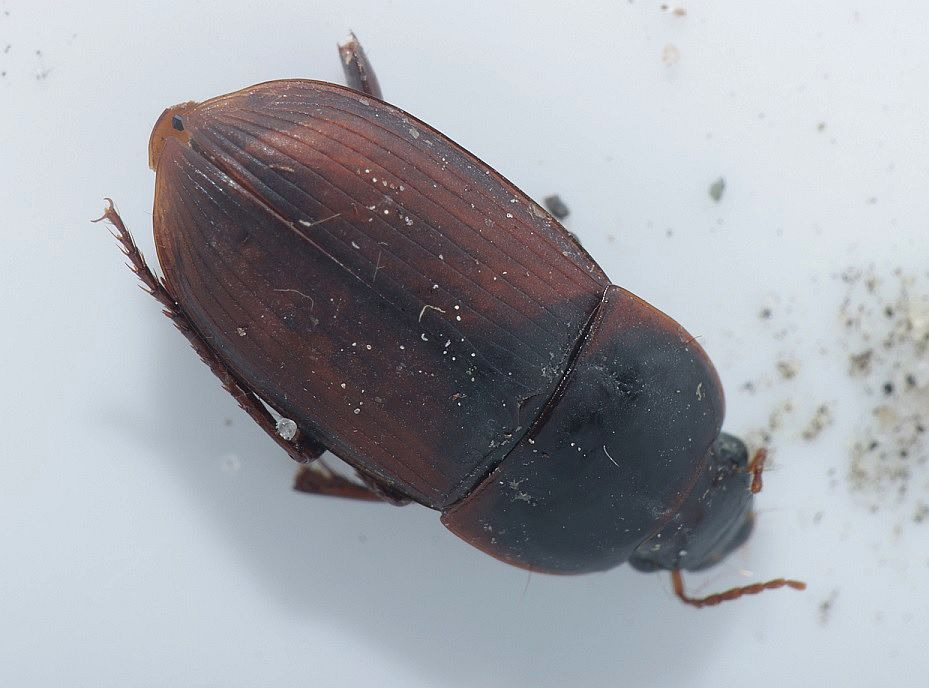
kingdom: Animalia
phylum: Arthropoda
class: Insecta
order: Coleoptera
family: Carabidae
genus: Harpalus
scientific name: Harpalus servus
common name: Flad sandløber
